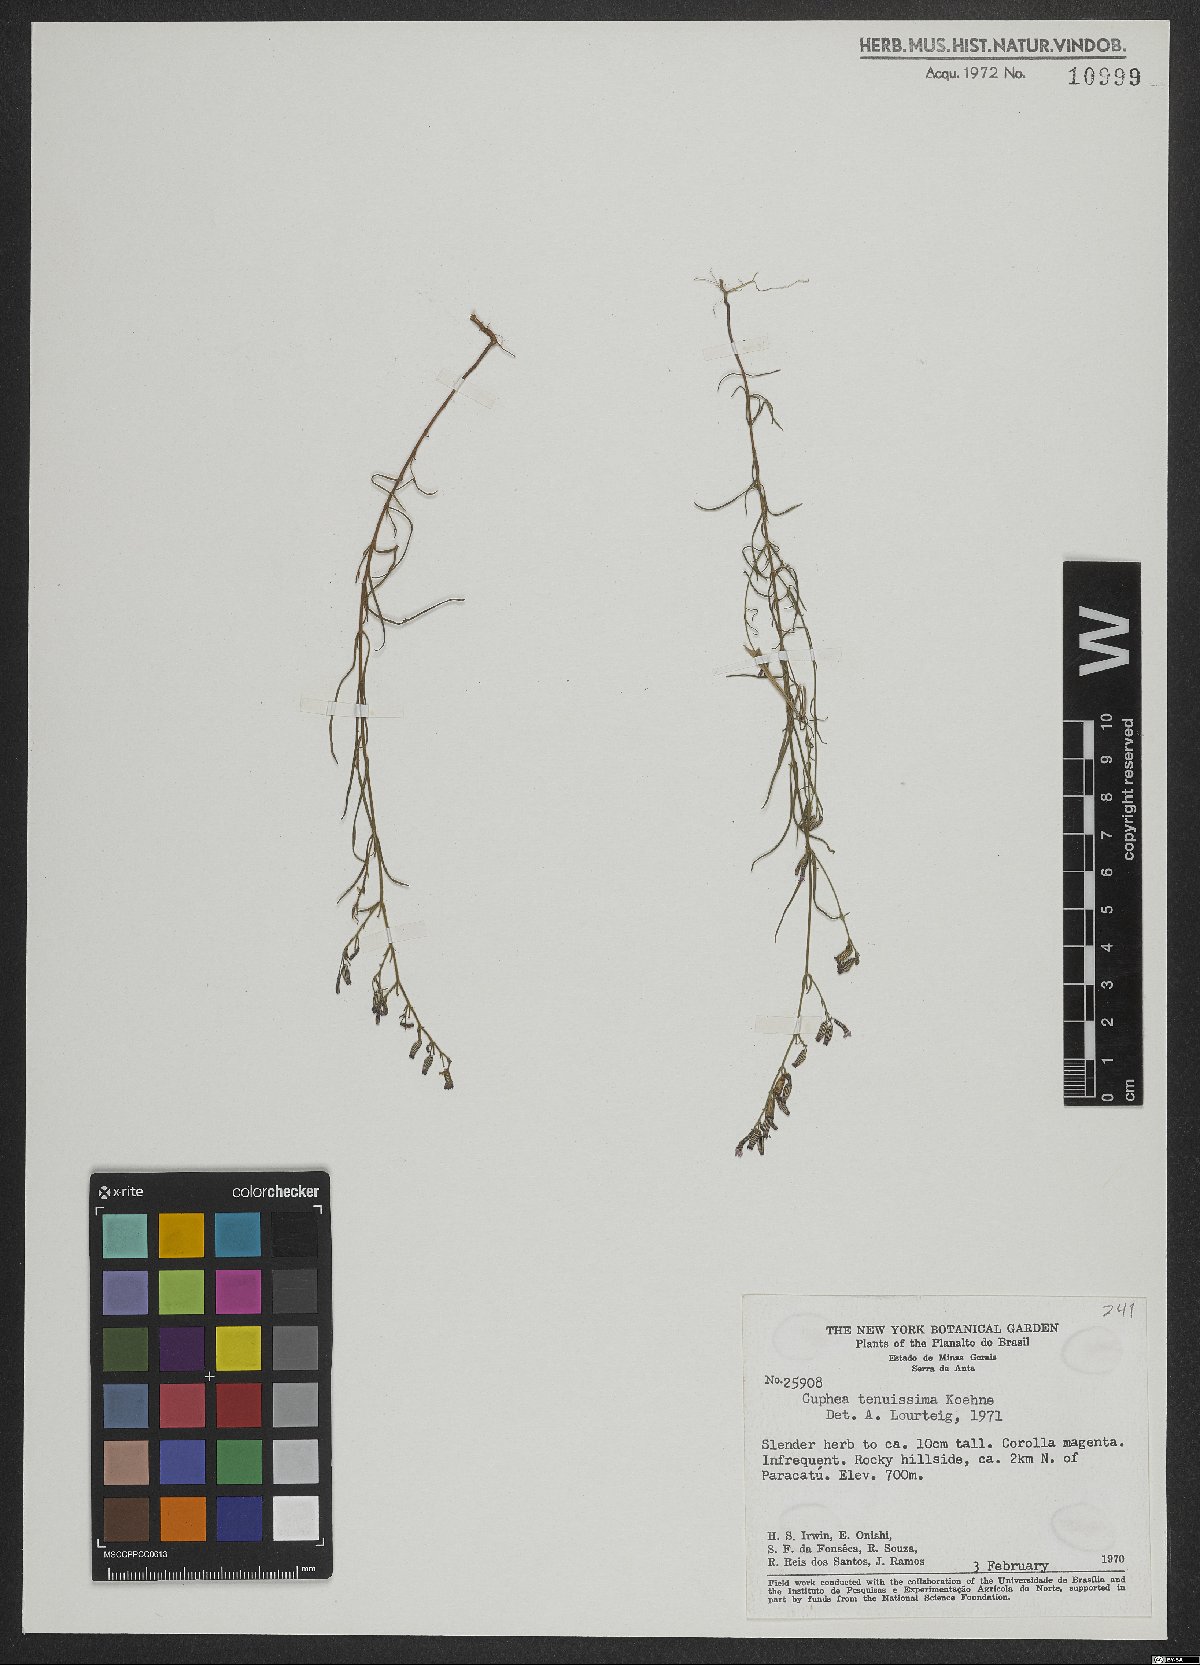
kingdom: Plantae
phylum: Tracheophyta
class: Magnoliopsida
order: Myrtales
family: Lythraceae
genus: Cuphea
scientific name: Cuphea tenuissima
